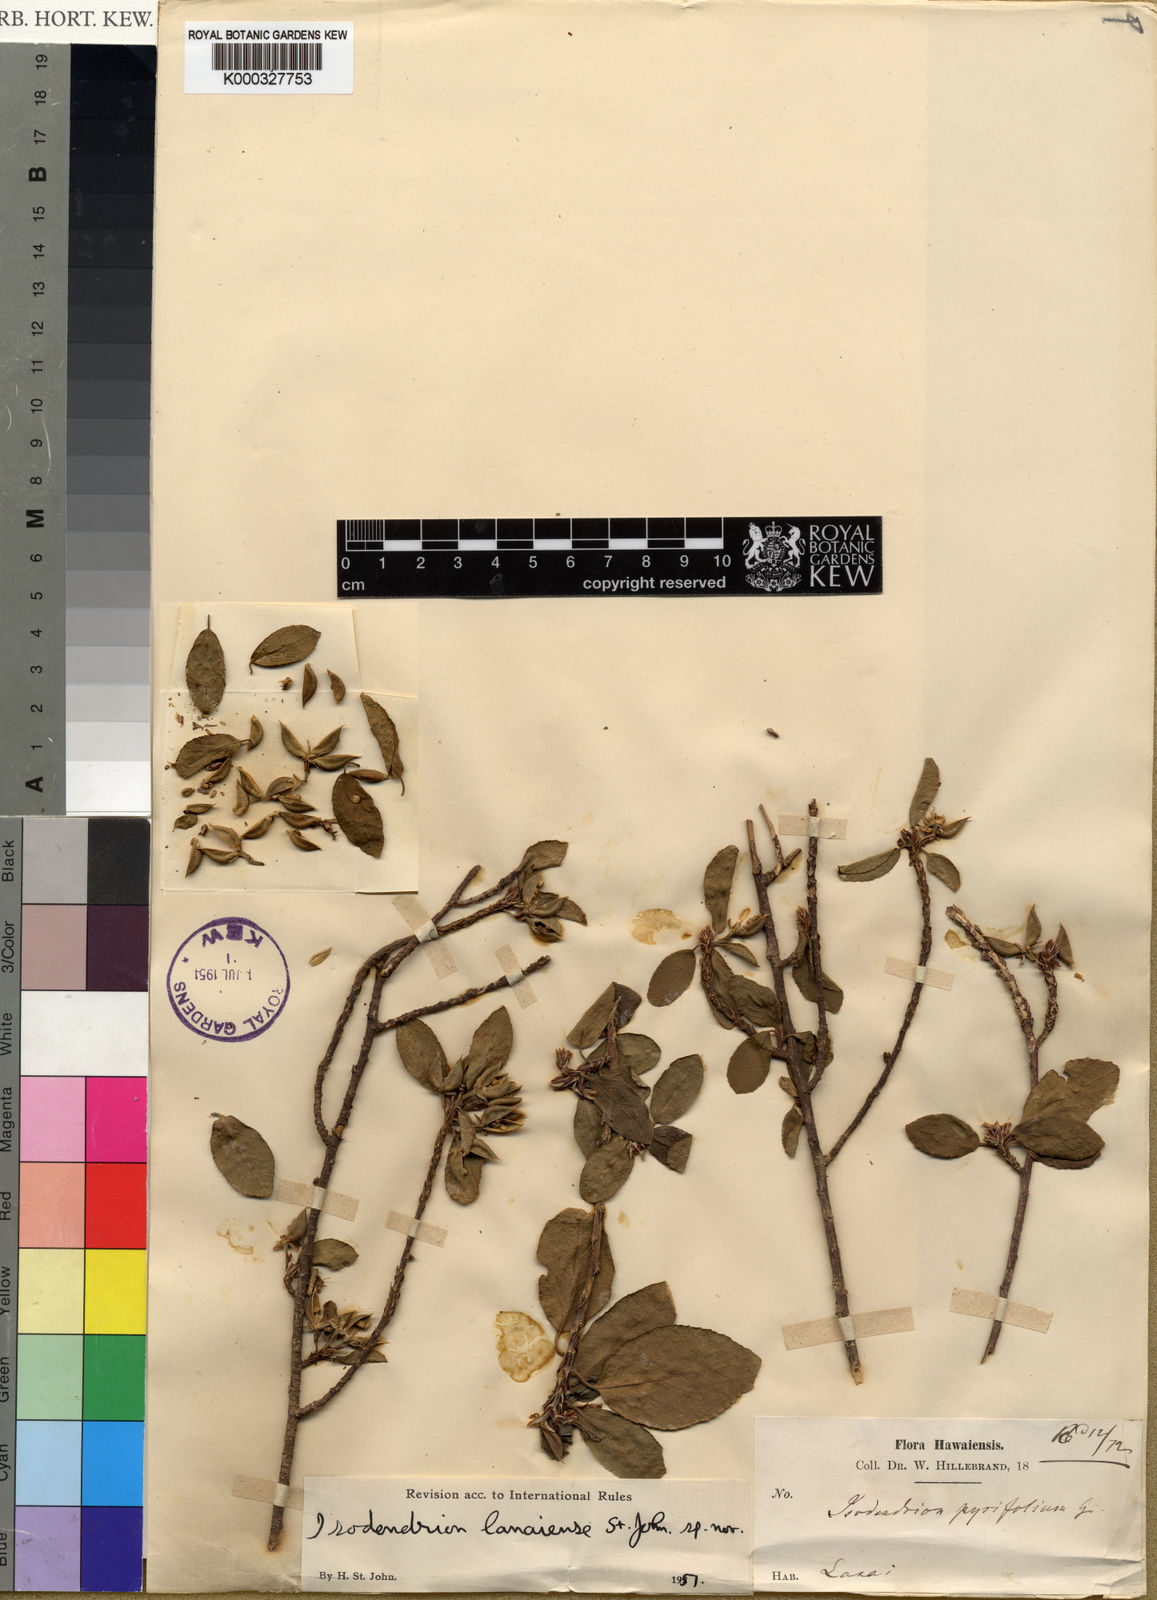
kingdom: Plantae
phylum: Tracheophyta
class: Magnoliopsida
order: Malpighiales
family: Violaceae
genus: Isodendrion
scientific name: Isodendrion pyrifolium
